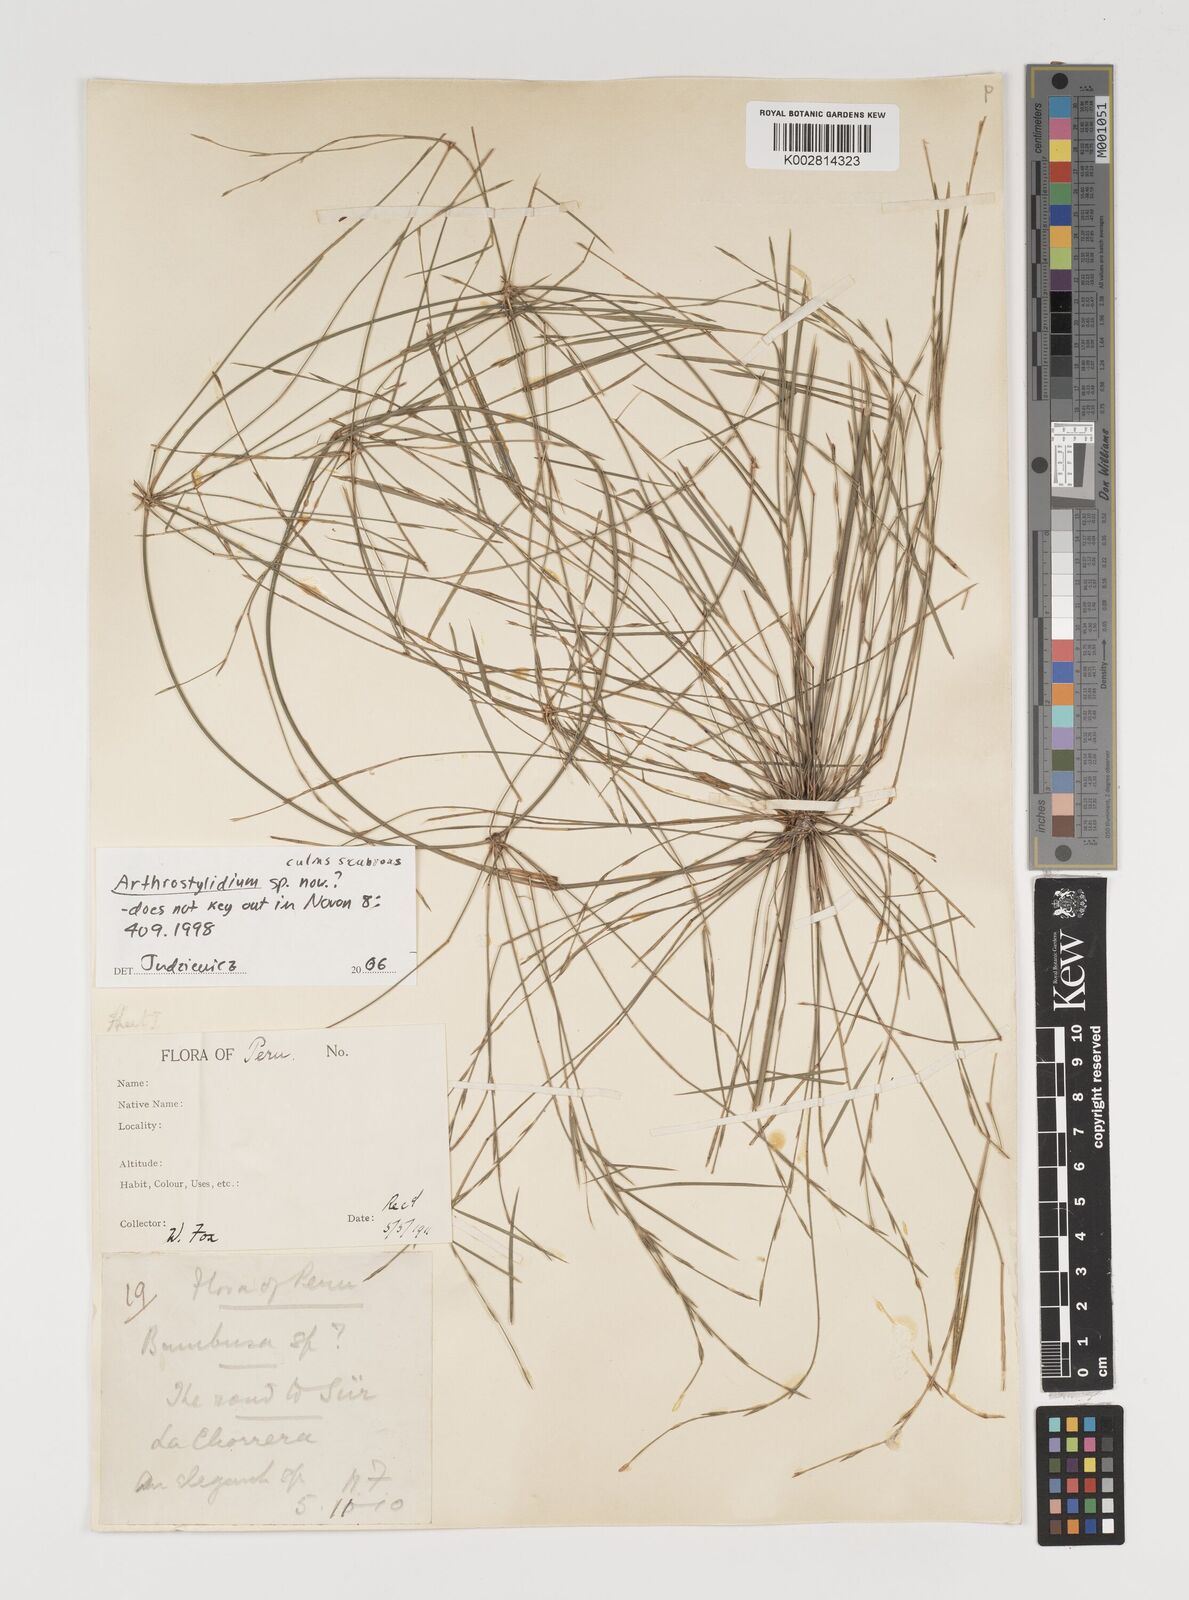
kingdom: Plantae
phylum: Tracheophyta
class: Liliopsida
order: Poales
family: Poaceae
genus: Arthrostylidium
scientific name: Arthrostylidium
